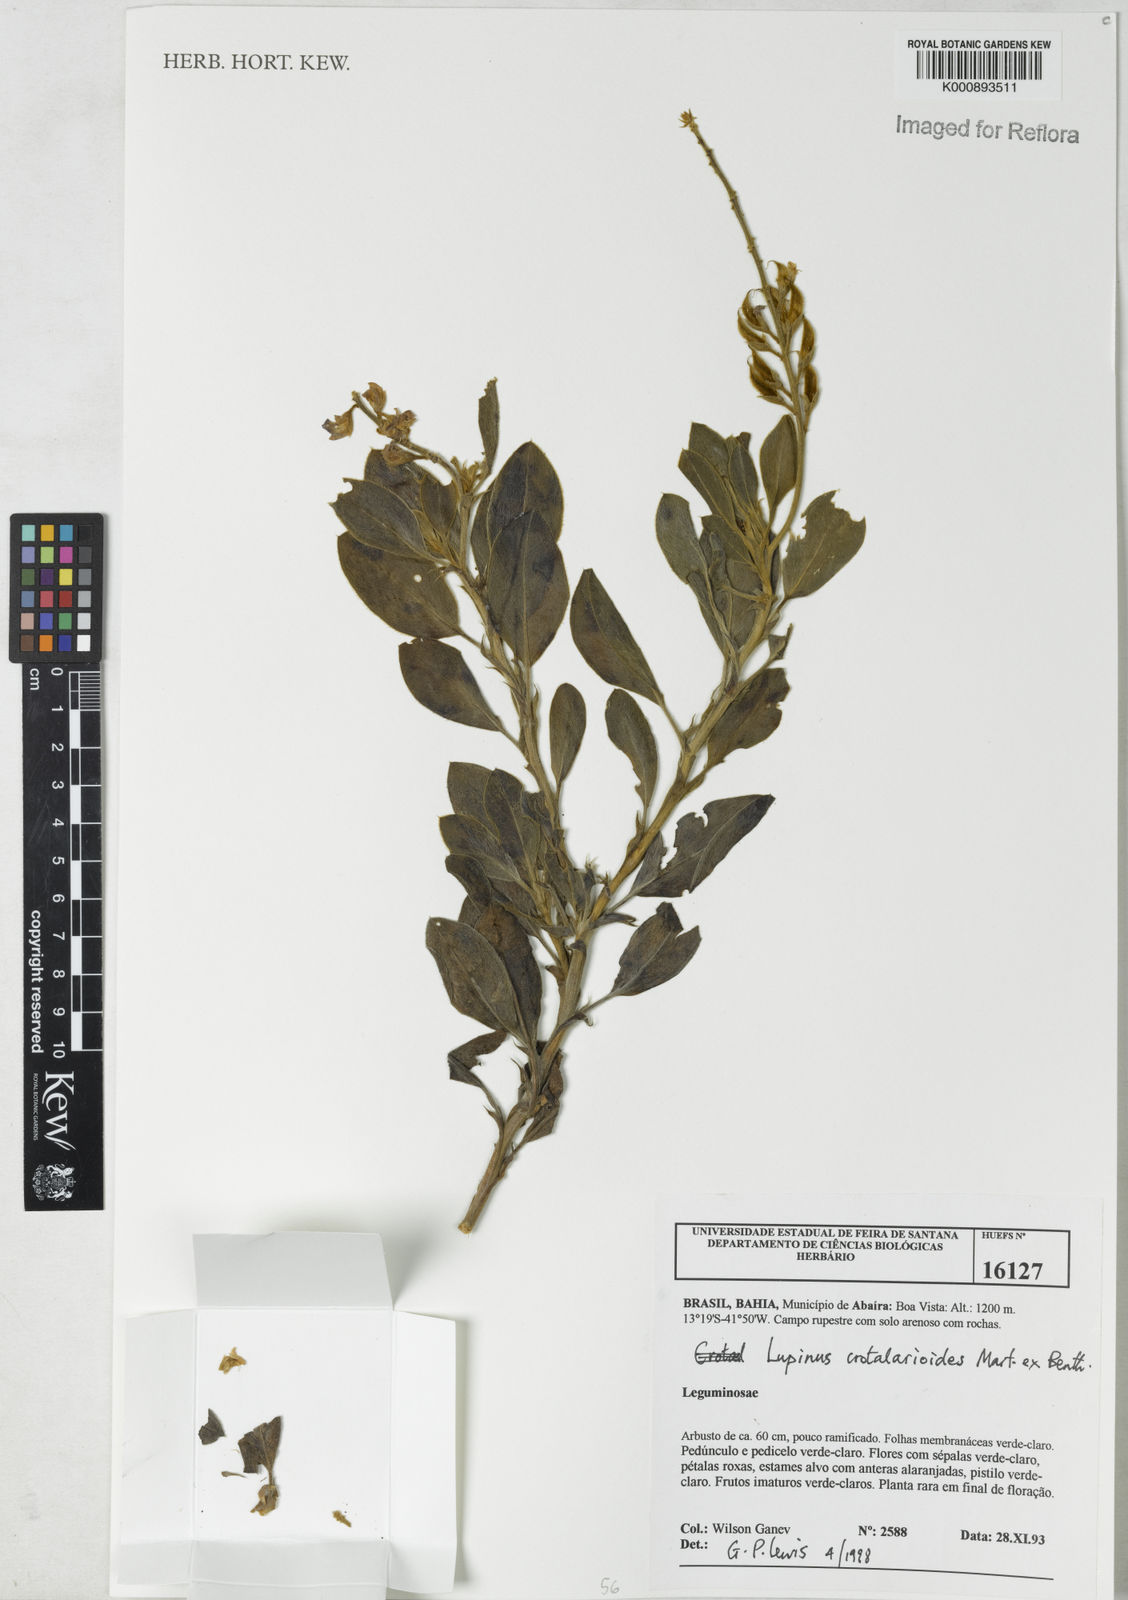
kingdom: Plantae
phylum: Tracheophyta
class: Magnoliopsida
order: Fabales
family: Fabaceae
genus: Lupinus
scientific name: Lupinus crotalarioides
